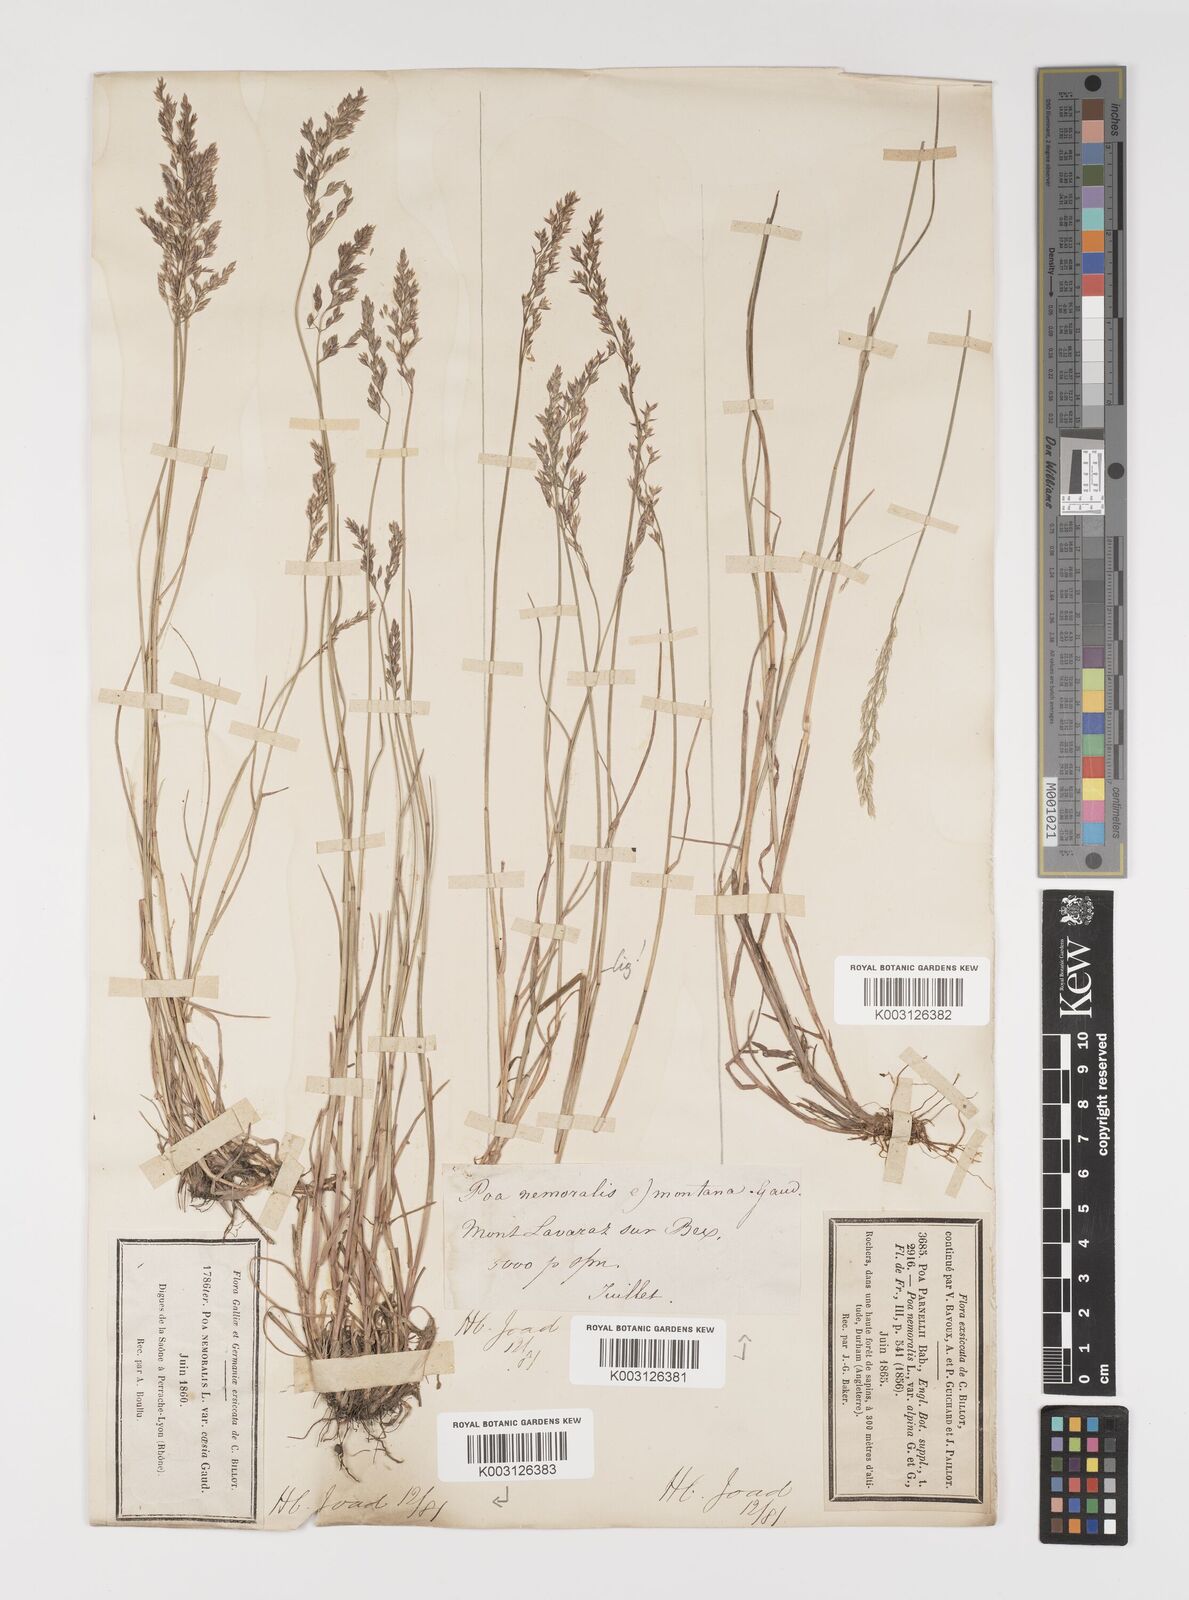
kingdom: Plantae
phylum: Tracheophyta
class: Liliopsida
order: Poales
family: Poaceae
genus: Poa
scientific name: Poa glauca
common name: Glaucous bluegrass
